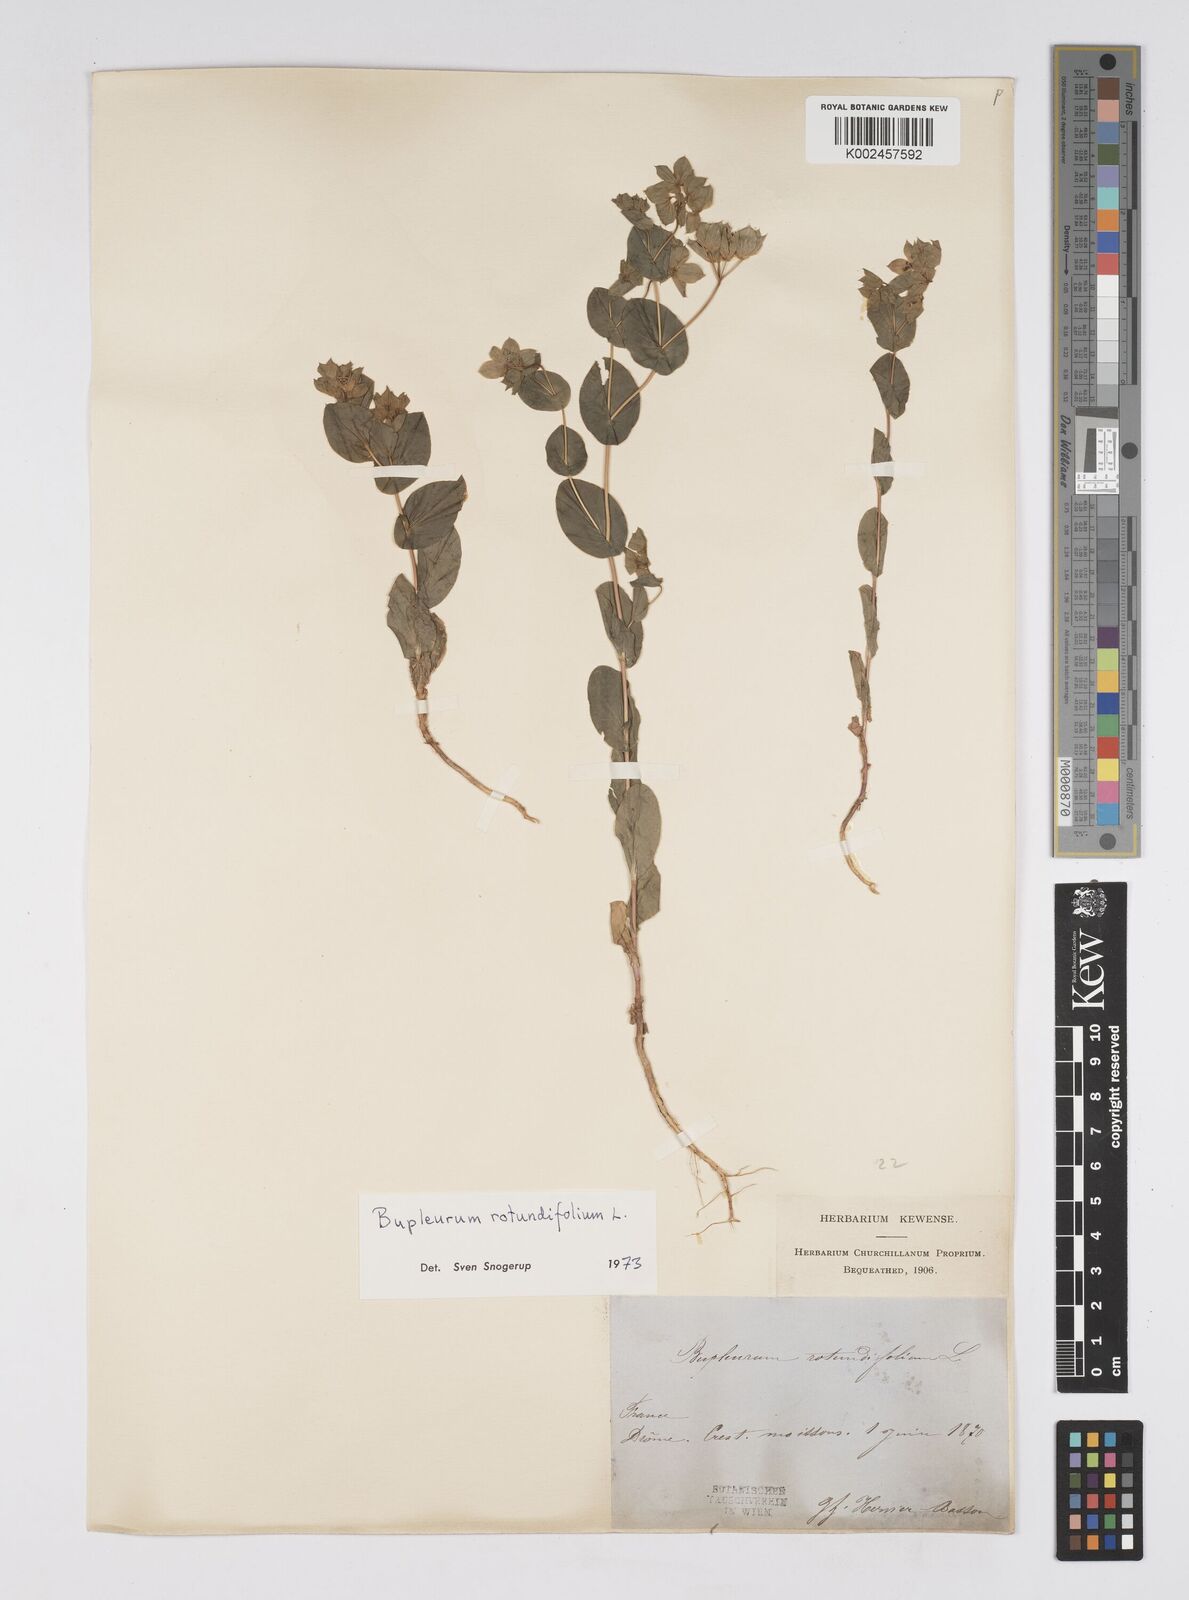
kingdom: Plantae
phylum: Tracheophyta
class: Magnoliopsida
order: Apiales
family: Apiaceae
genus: Bupleurum
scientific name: Bupleurum rotundifolium
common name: Thorow-wax
